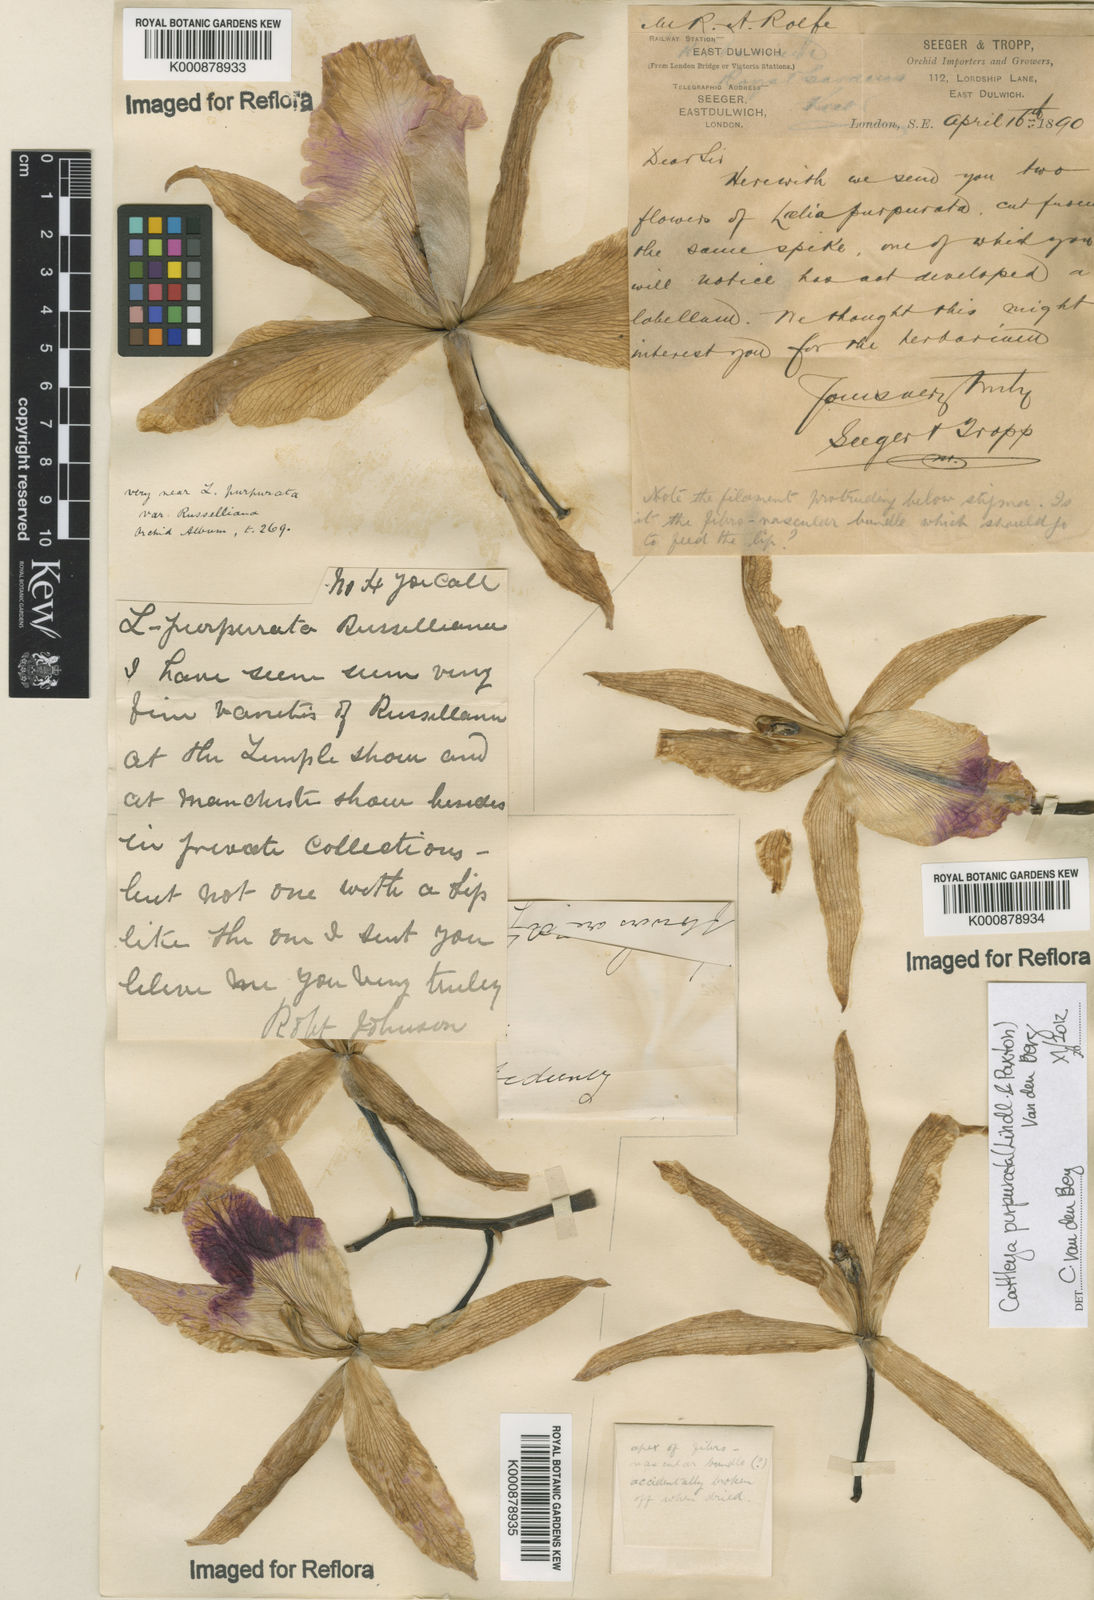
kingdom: Plantae
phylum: Tracheophyta
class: Liliopsida
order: Asparagales
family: Orchidaceae
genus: Cattleya
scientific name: Cattleya
